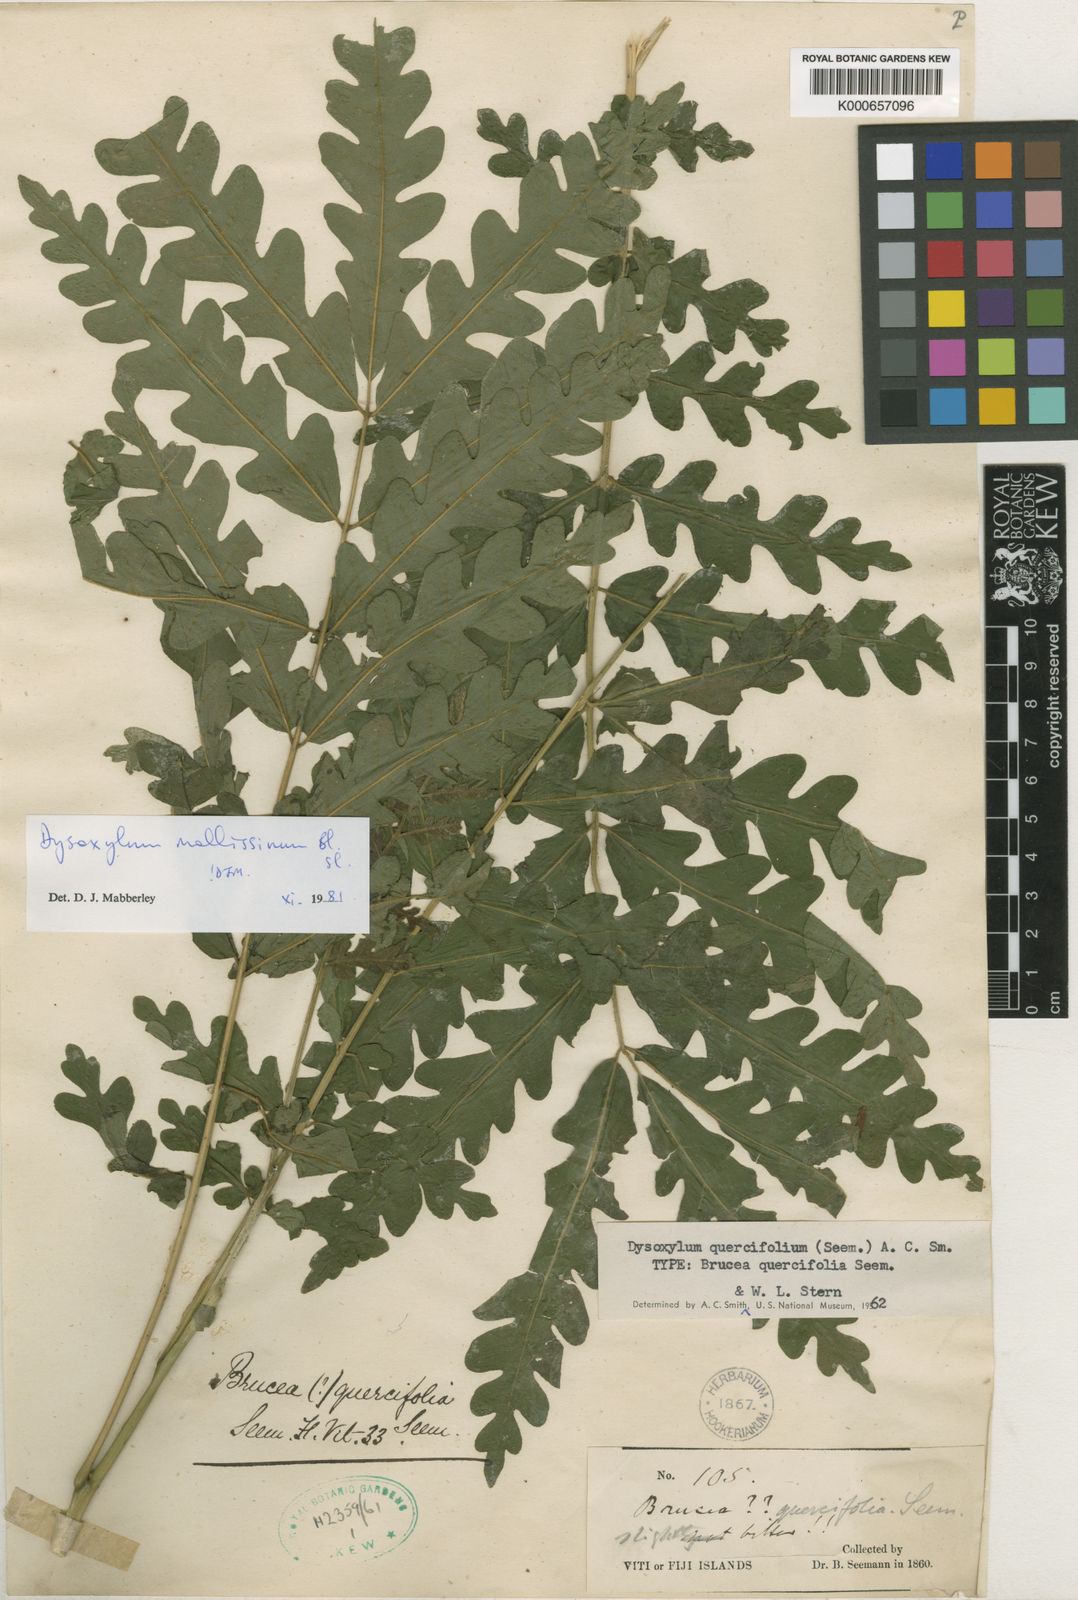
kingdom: Plantae
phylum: Tracheophyta
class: Magnoliopsida
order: Sapindales
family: Meliaceae
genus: Dysoxylum
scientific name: Dysoxylum mollissimum
